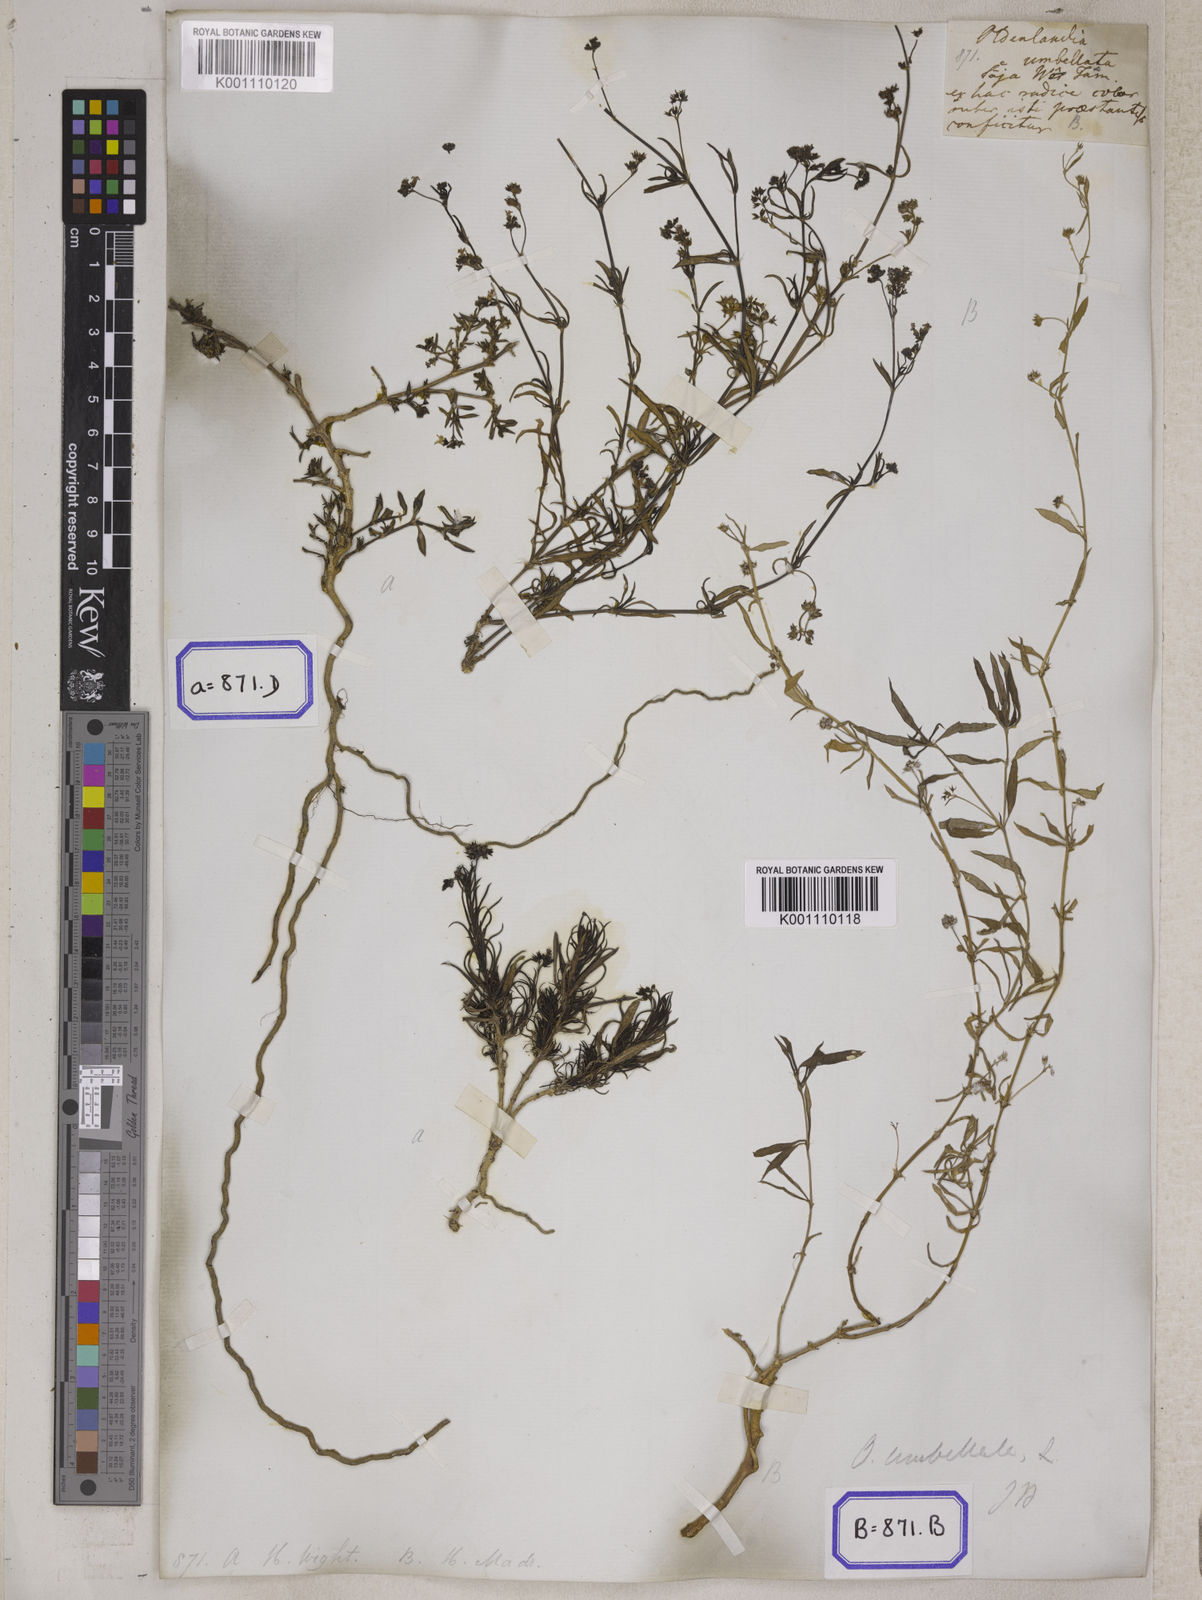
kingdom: Plantae
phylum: Tracheophyta
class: Magnoliopsida
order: Gentianales
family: Rubiaceae
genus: Oldenlandia
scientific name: Oldenlandia umbellata
